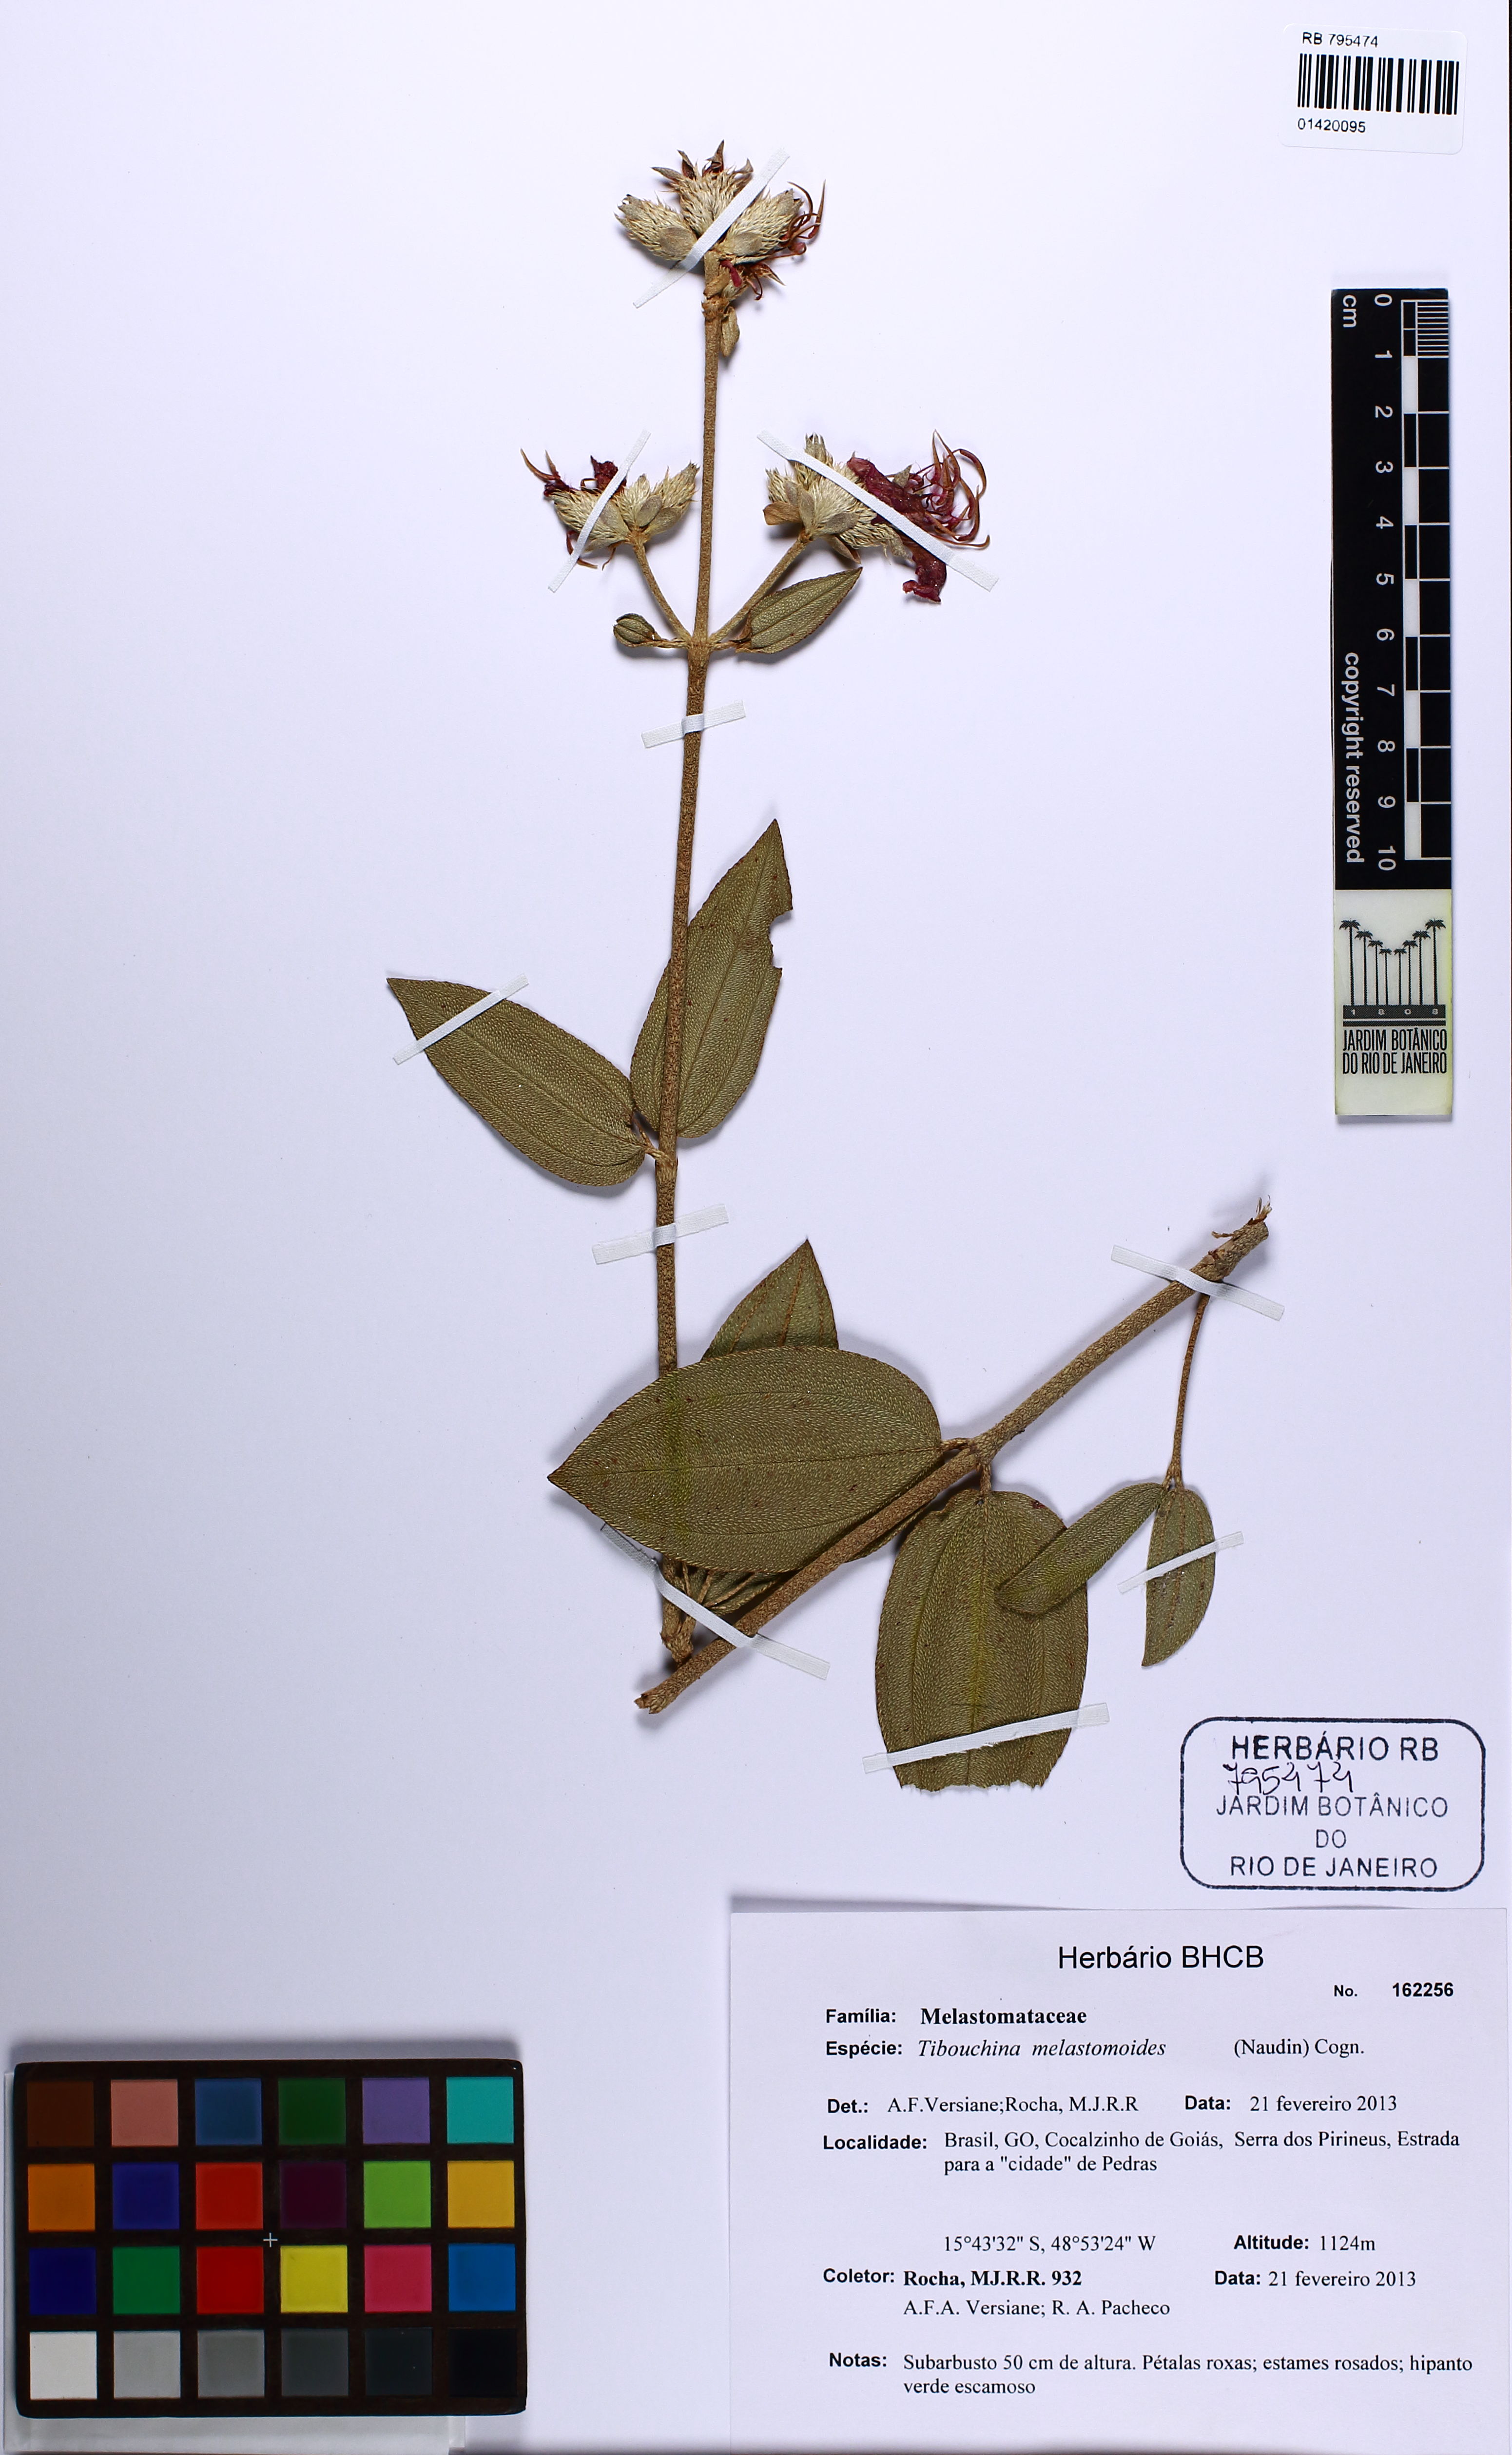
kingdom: Plantae
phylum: Tracheophyta
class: Magnoliopsida
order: Myrtales
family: Melastomataceae
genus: Pleroma
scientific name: Pleroma melastomoides
